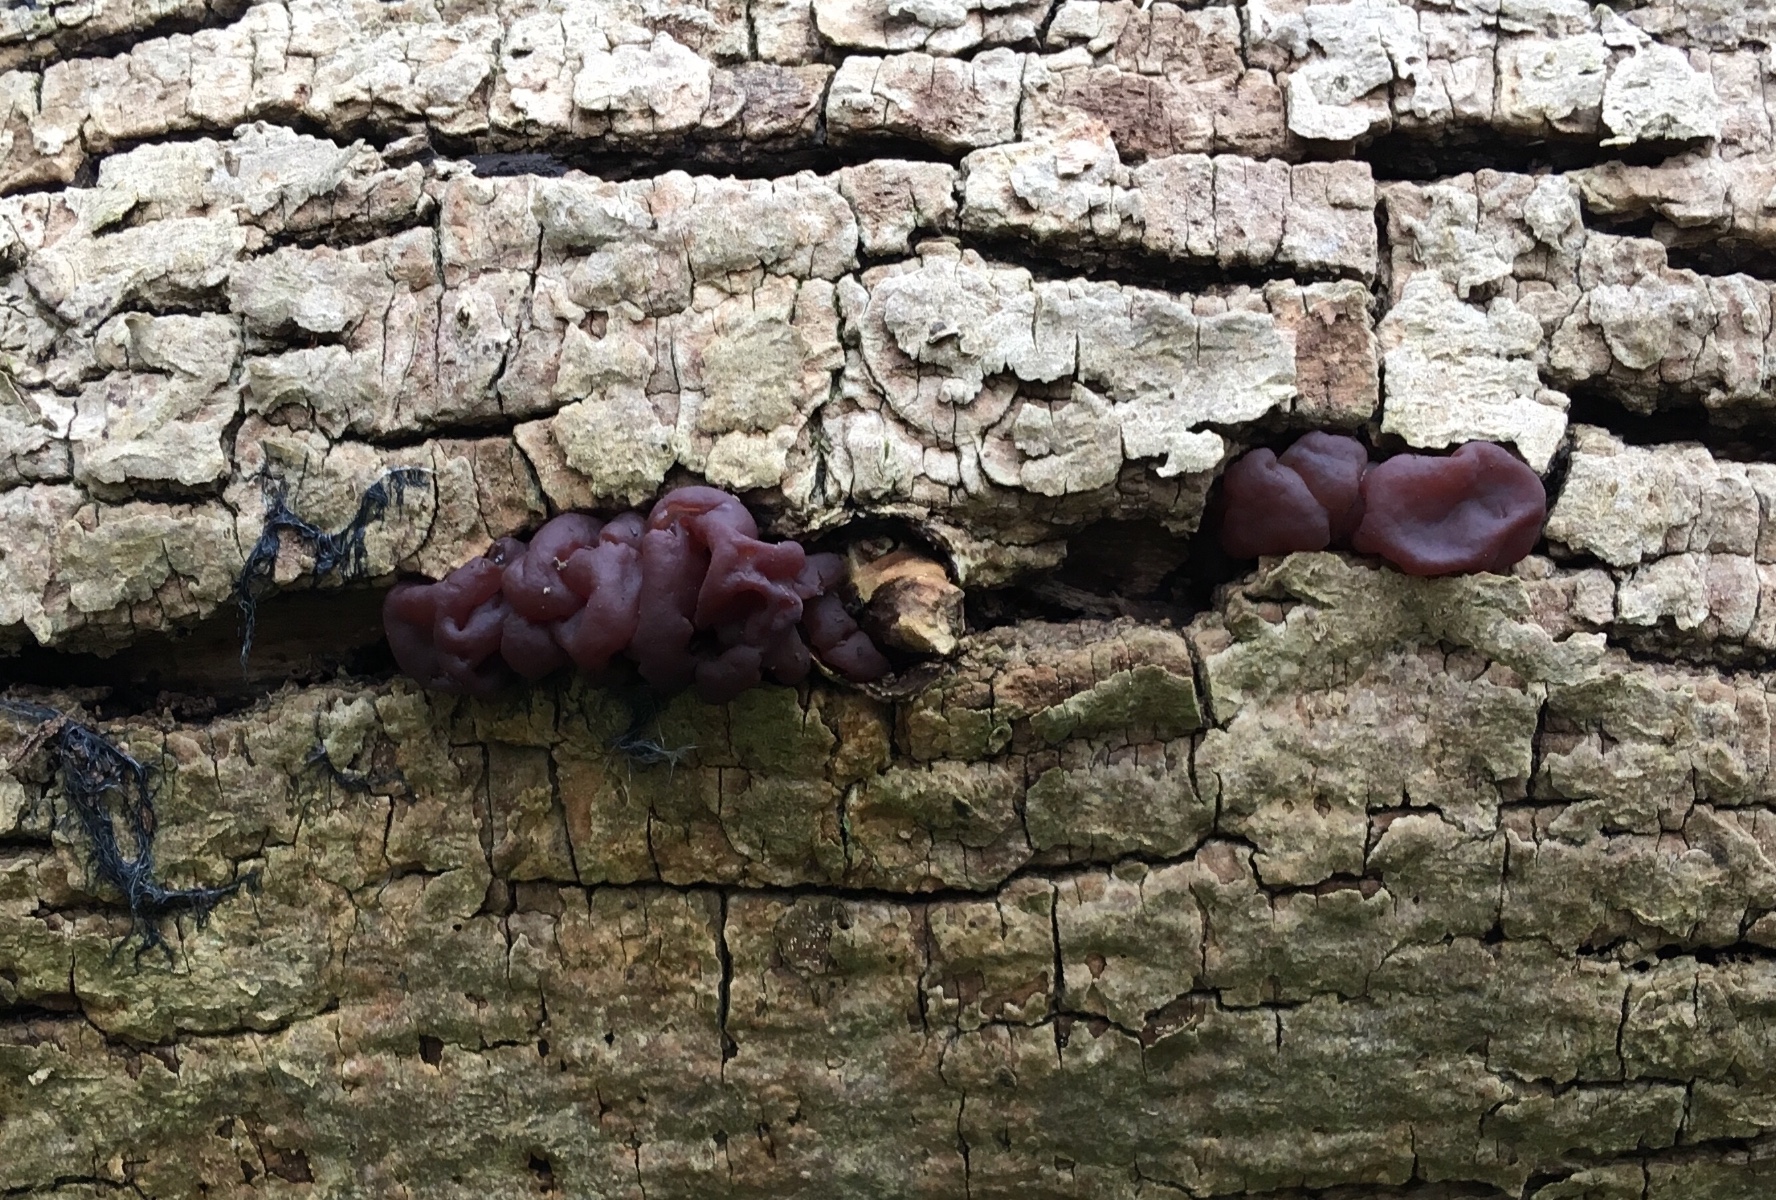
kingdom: Fungi
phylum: Ascomycota
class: Leotiomycetes
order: Helotiales
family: Gelatinodiscaceae
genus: Ascotremella
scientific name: Ascotremella faginea
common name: hjerne-bævreskive
